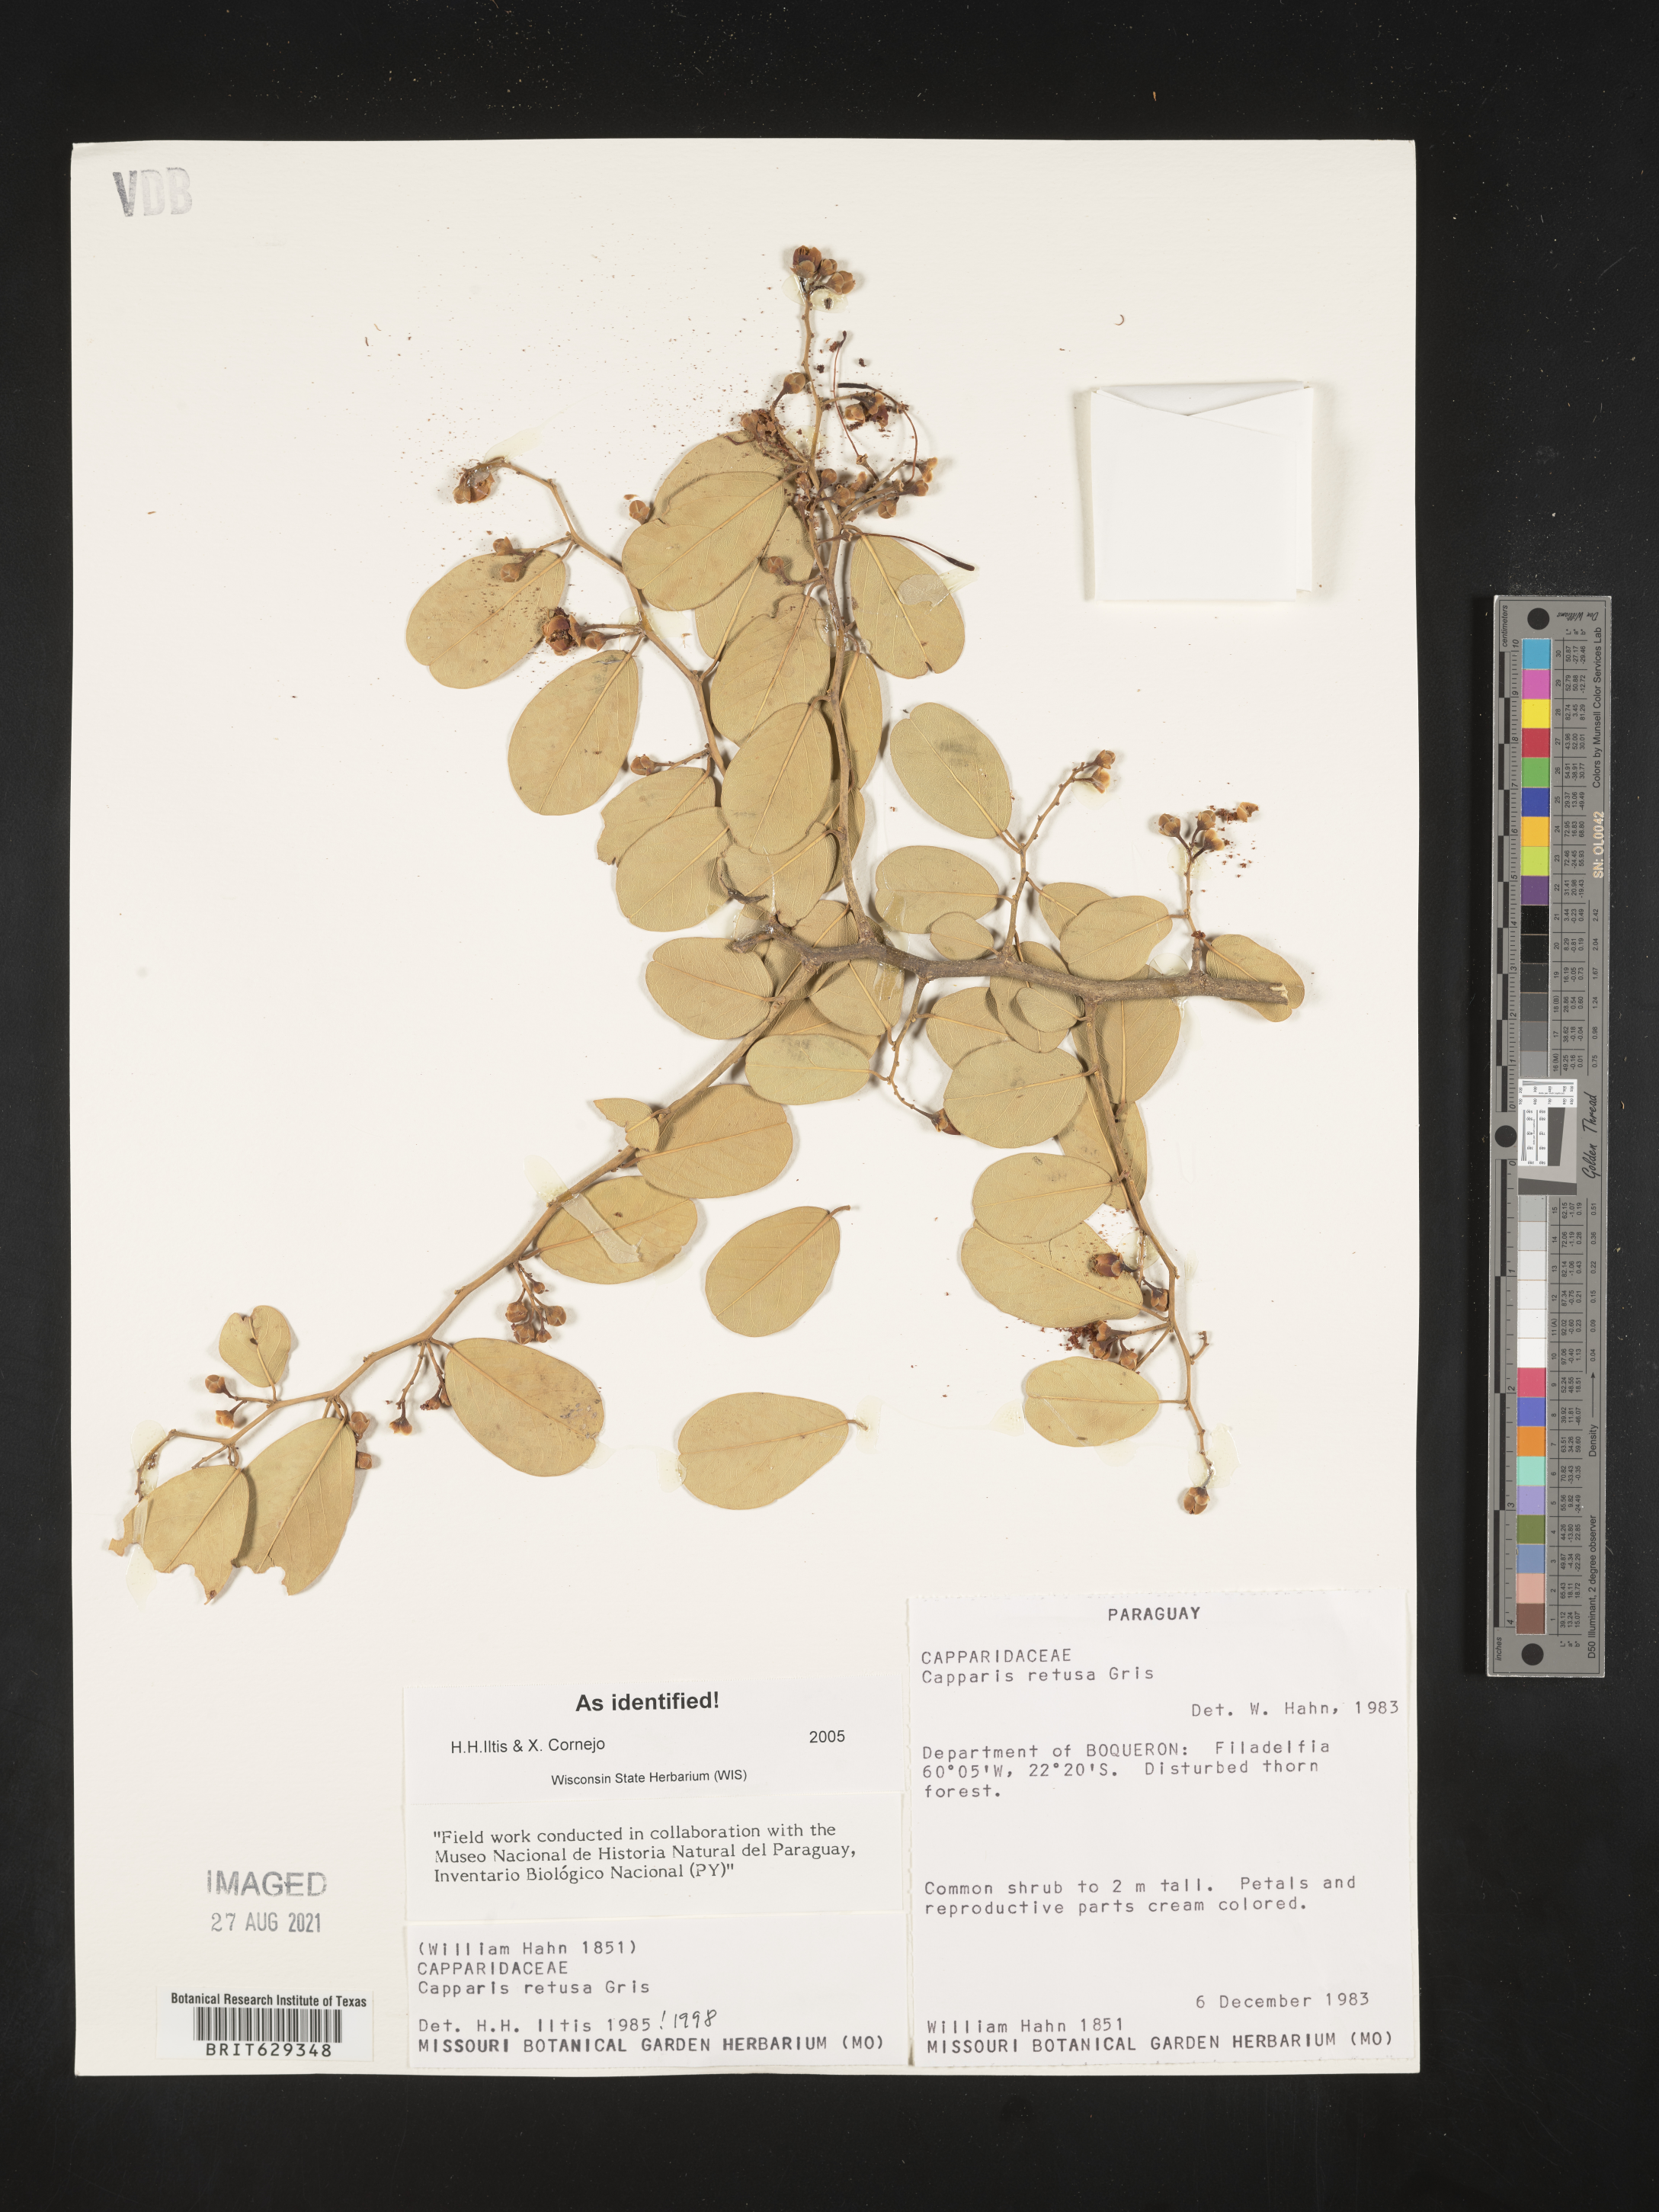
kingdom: Plantae
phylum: Tracheophyta
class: Magnoliopsida
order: Brassicales
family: Capparaceae
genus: Cynophalla
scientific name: Cynophalla retusa
